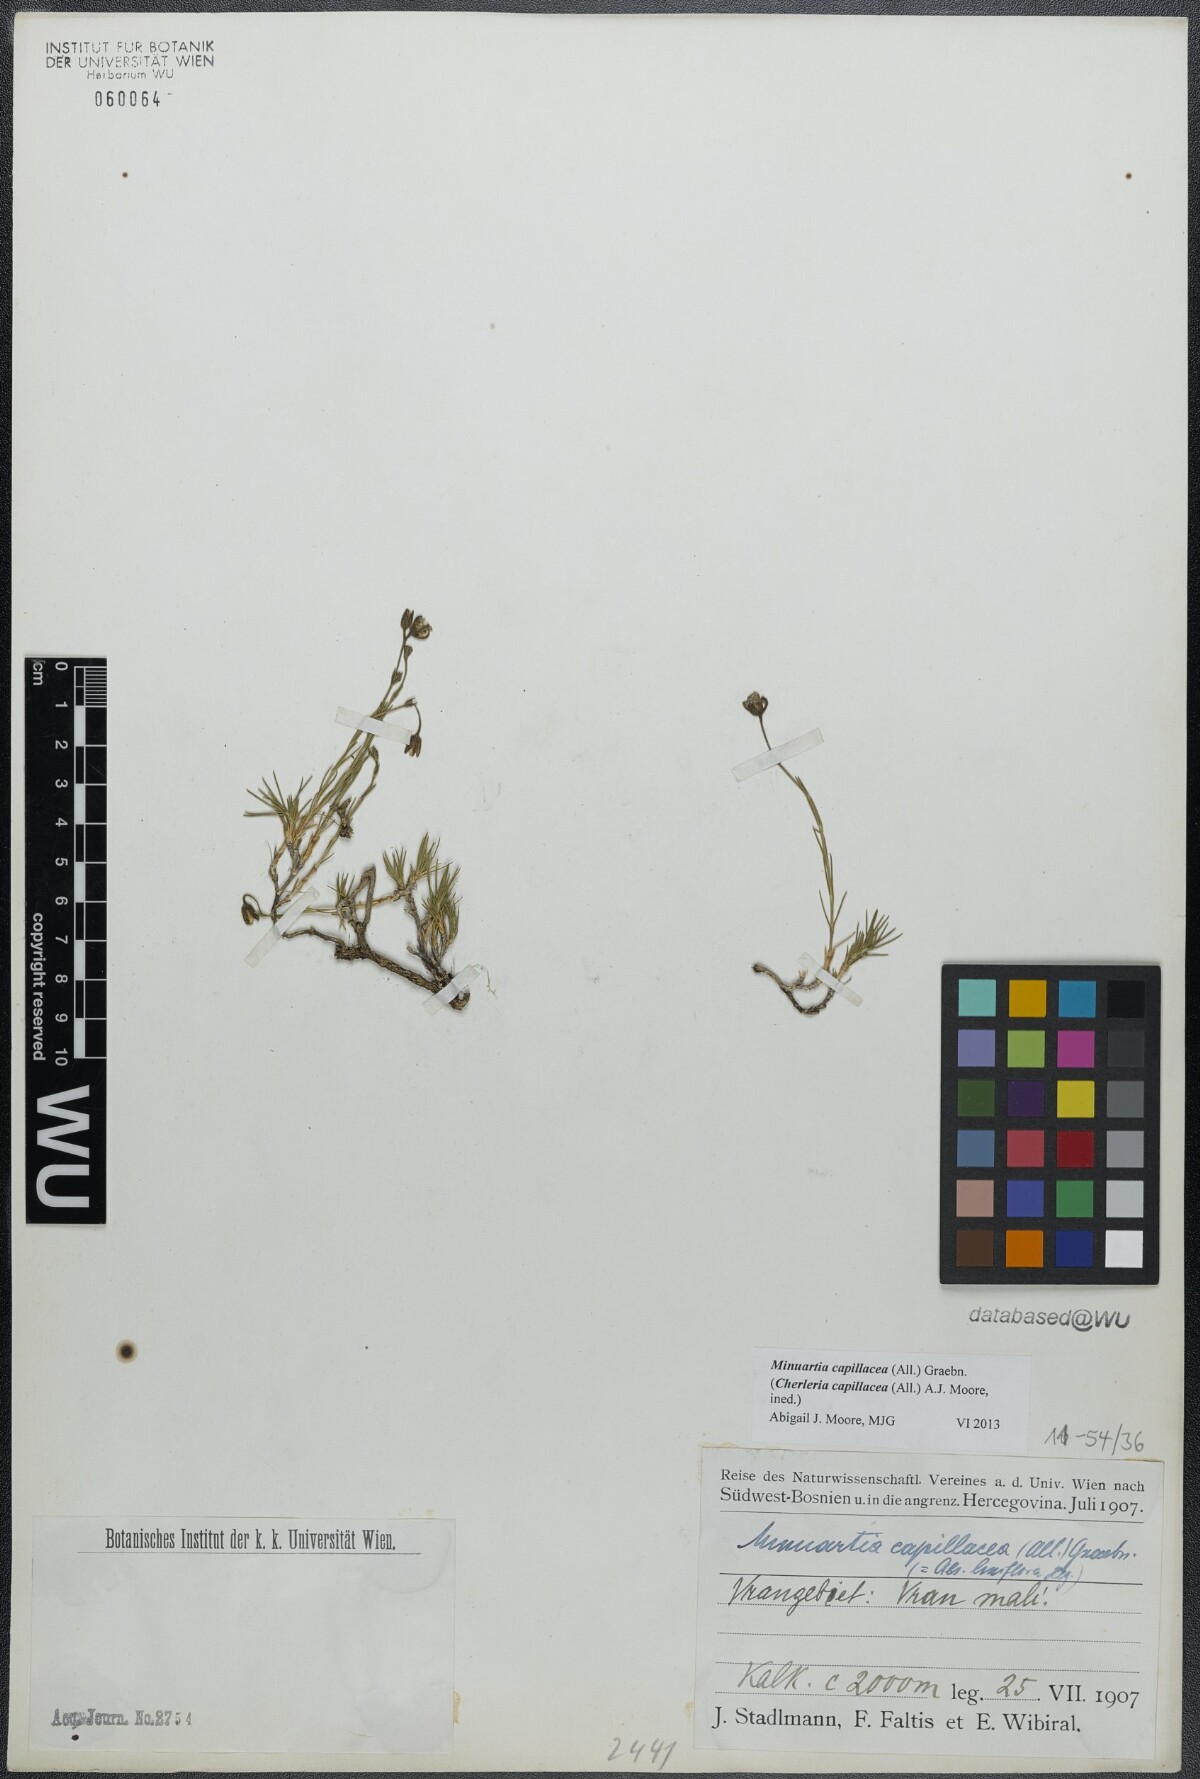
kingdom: Plantae
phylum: Tracheophyta
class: Magnoliopsida
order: Caryophyllales
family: Caryophyllaceae
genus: Cherleria
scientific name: Cherleria capillacea
